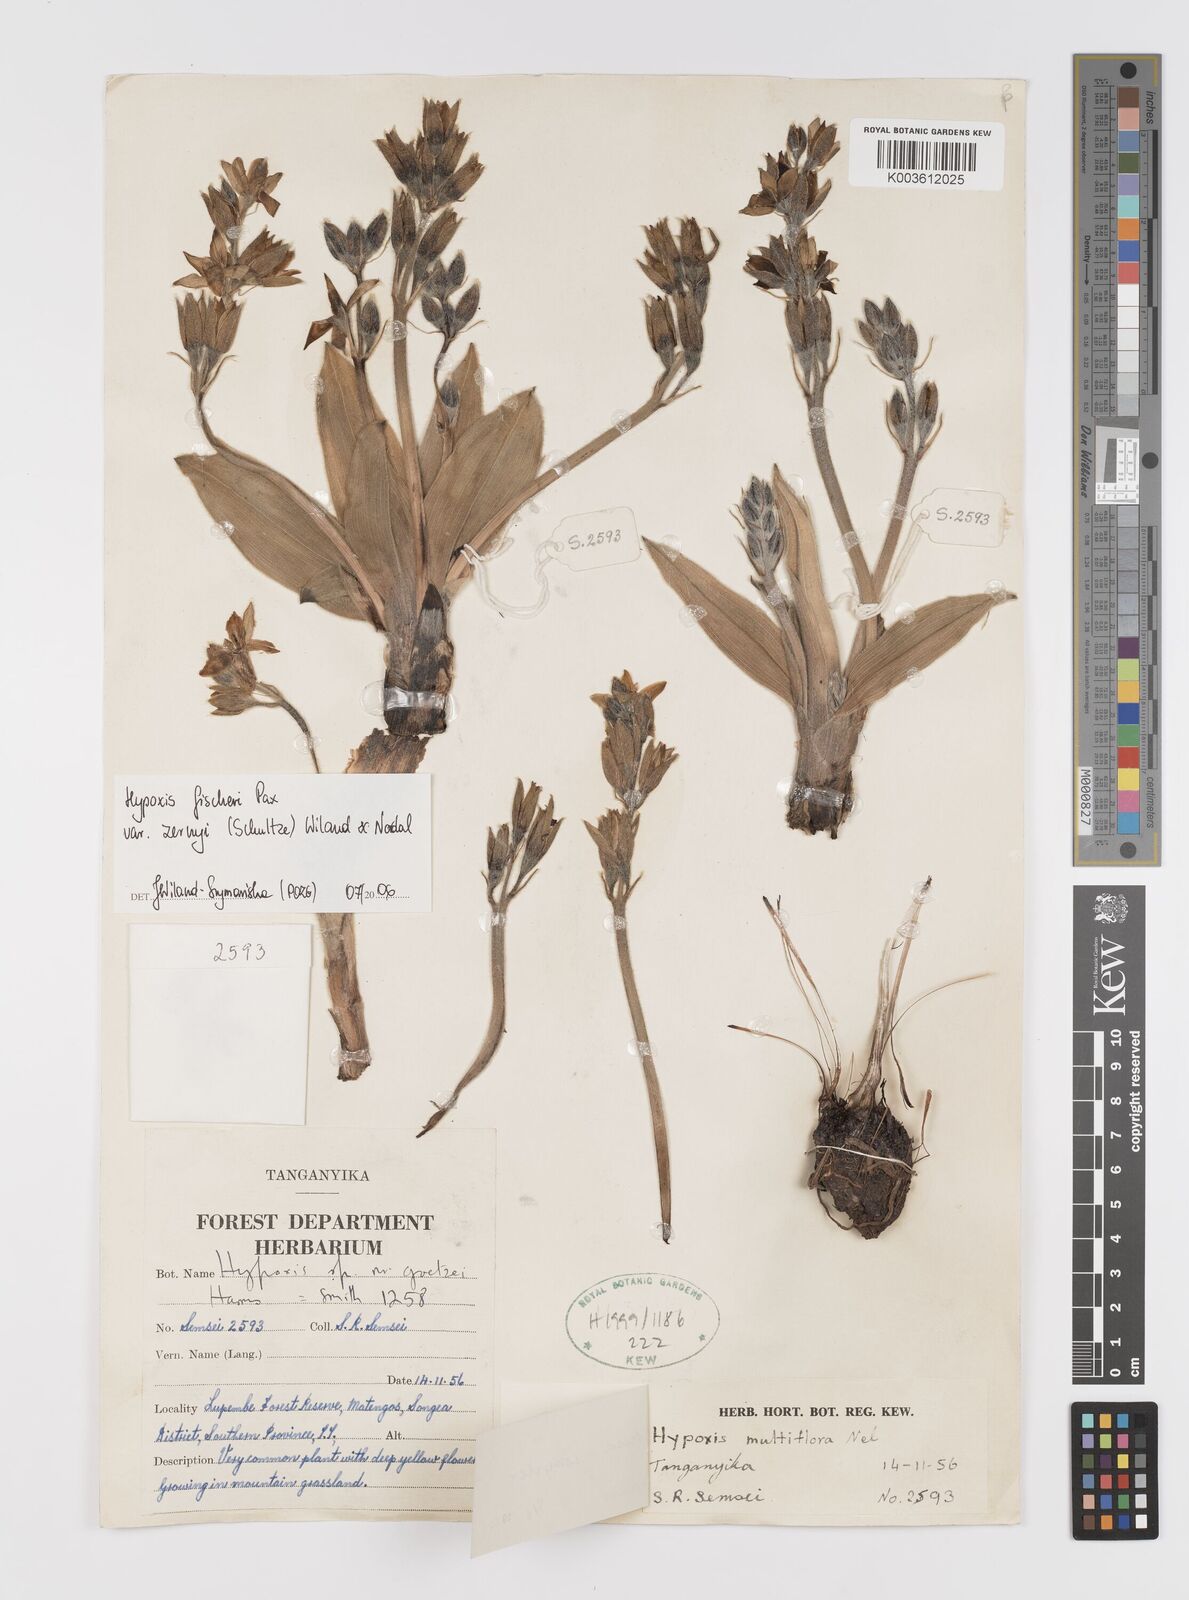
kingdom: Plantae
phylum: Tracheophyta
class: Liliopsida
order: Asparagales
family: Hypoxidaceae
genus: Hypoxis
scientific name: Hypoxis fischeri
